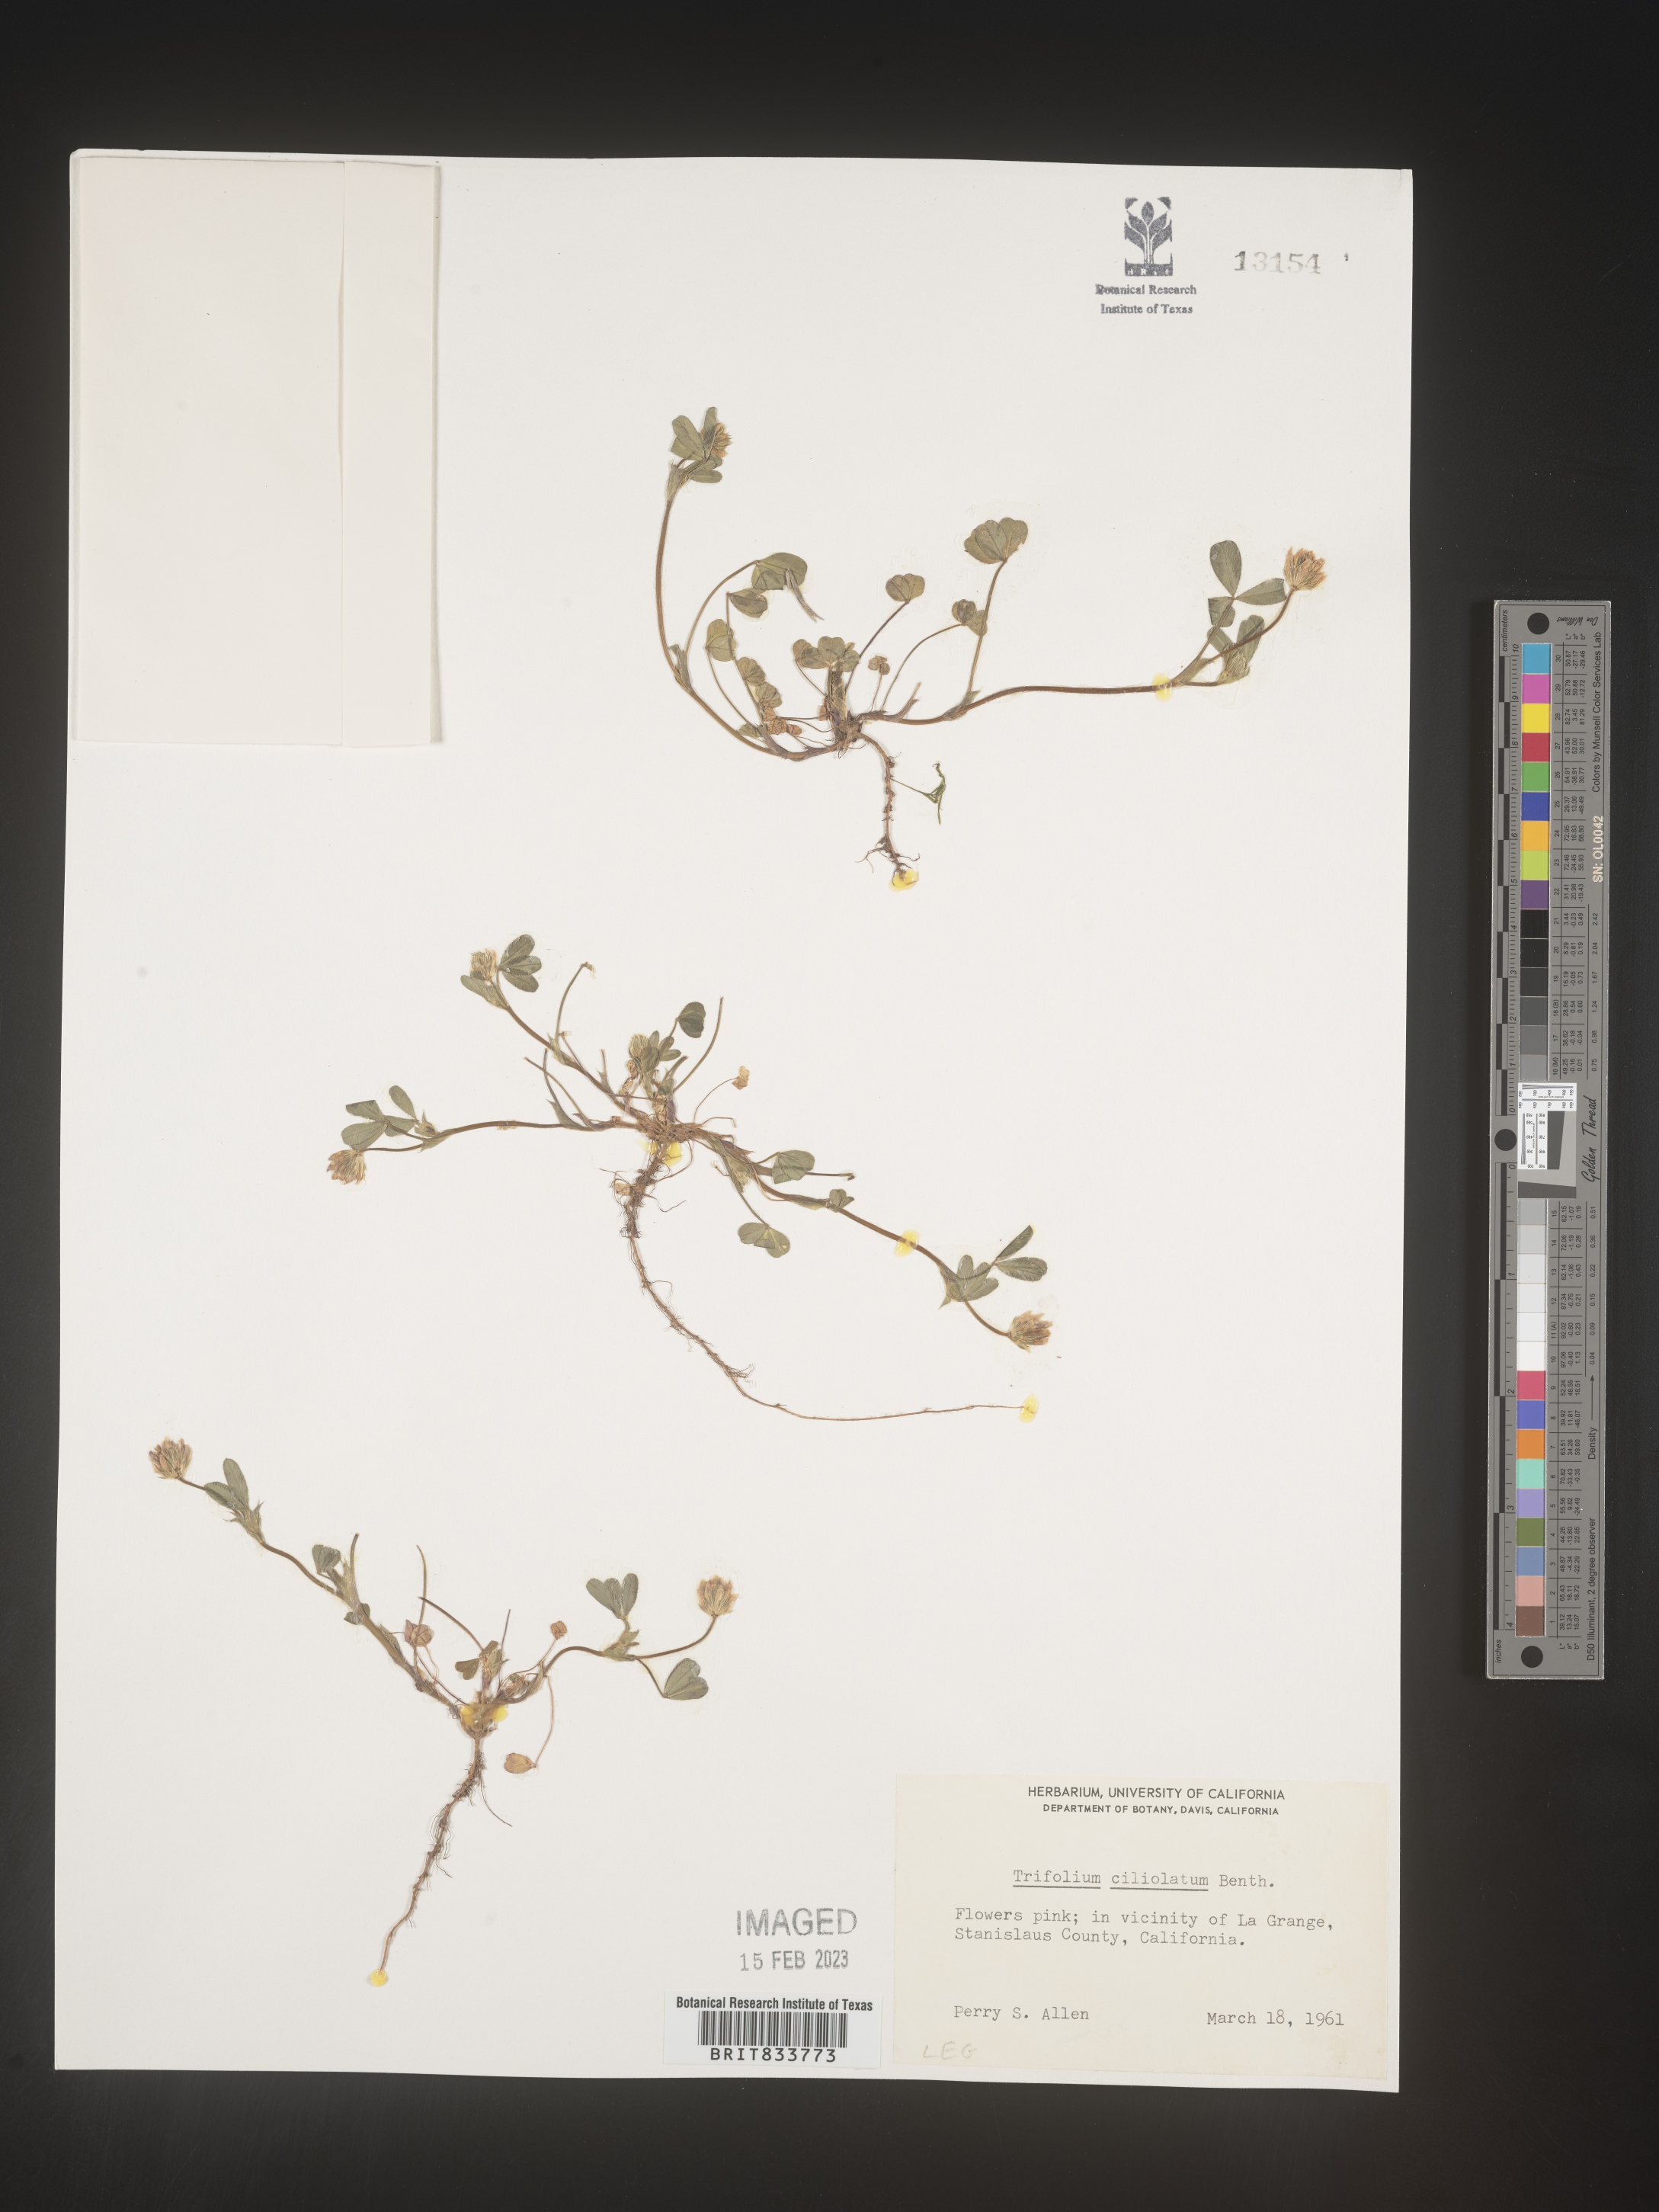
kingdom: Plantae
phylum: Tracheophyta
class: Magnoliopsida
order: Fabales
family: Fabaceae
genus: Trifolium
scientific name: Trifolium
